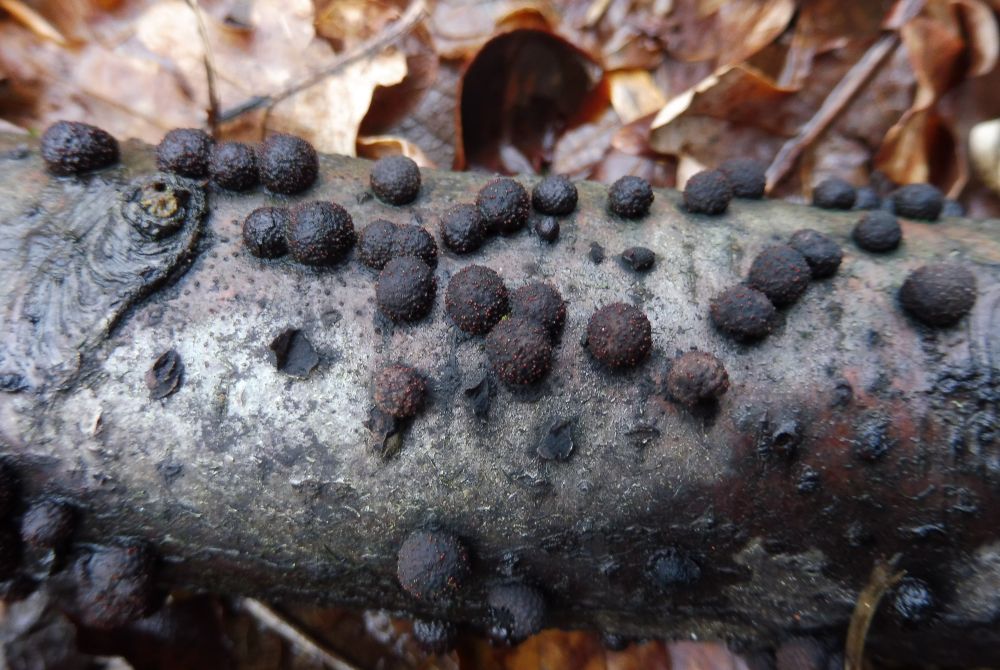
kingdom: Fungi
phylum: Ascomycota
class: Sordariomycetes
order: Xylariales
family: Hypoxylaceae
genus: Hypoxylon
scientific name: Hypoxylon fragiforme
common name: kuljordbær
